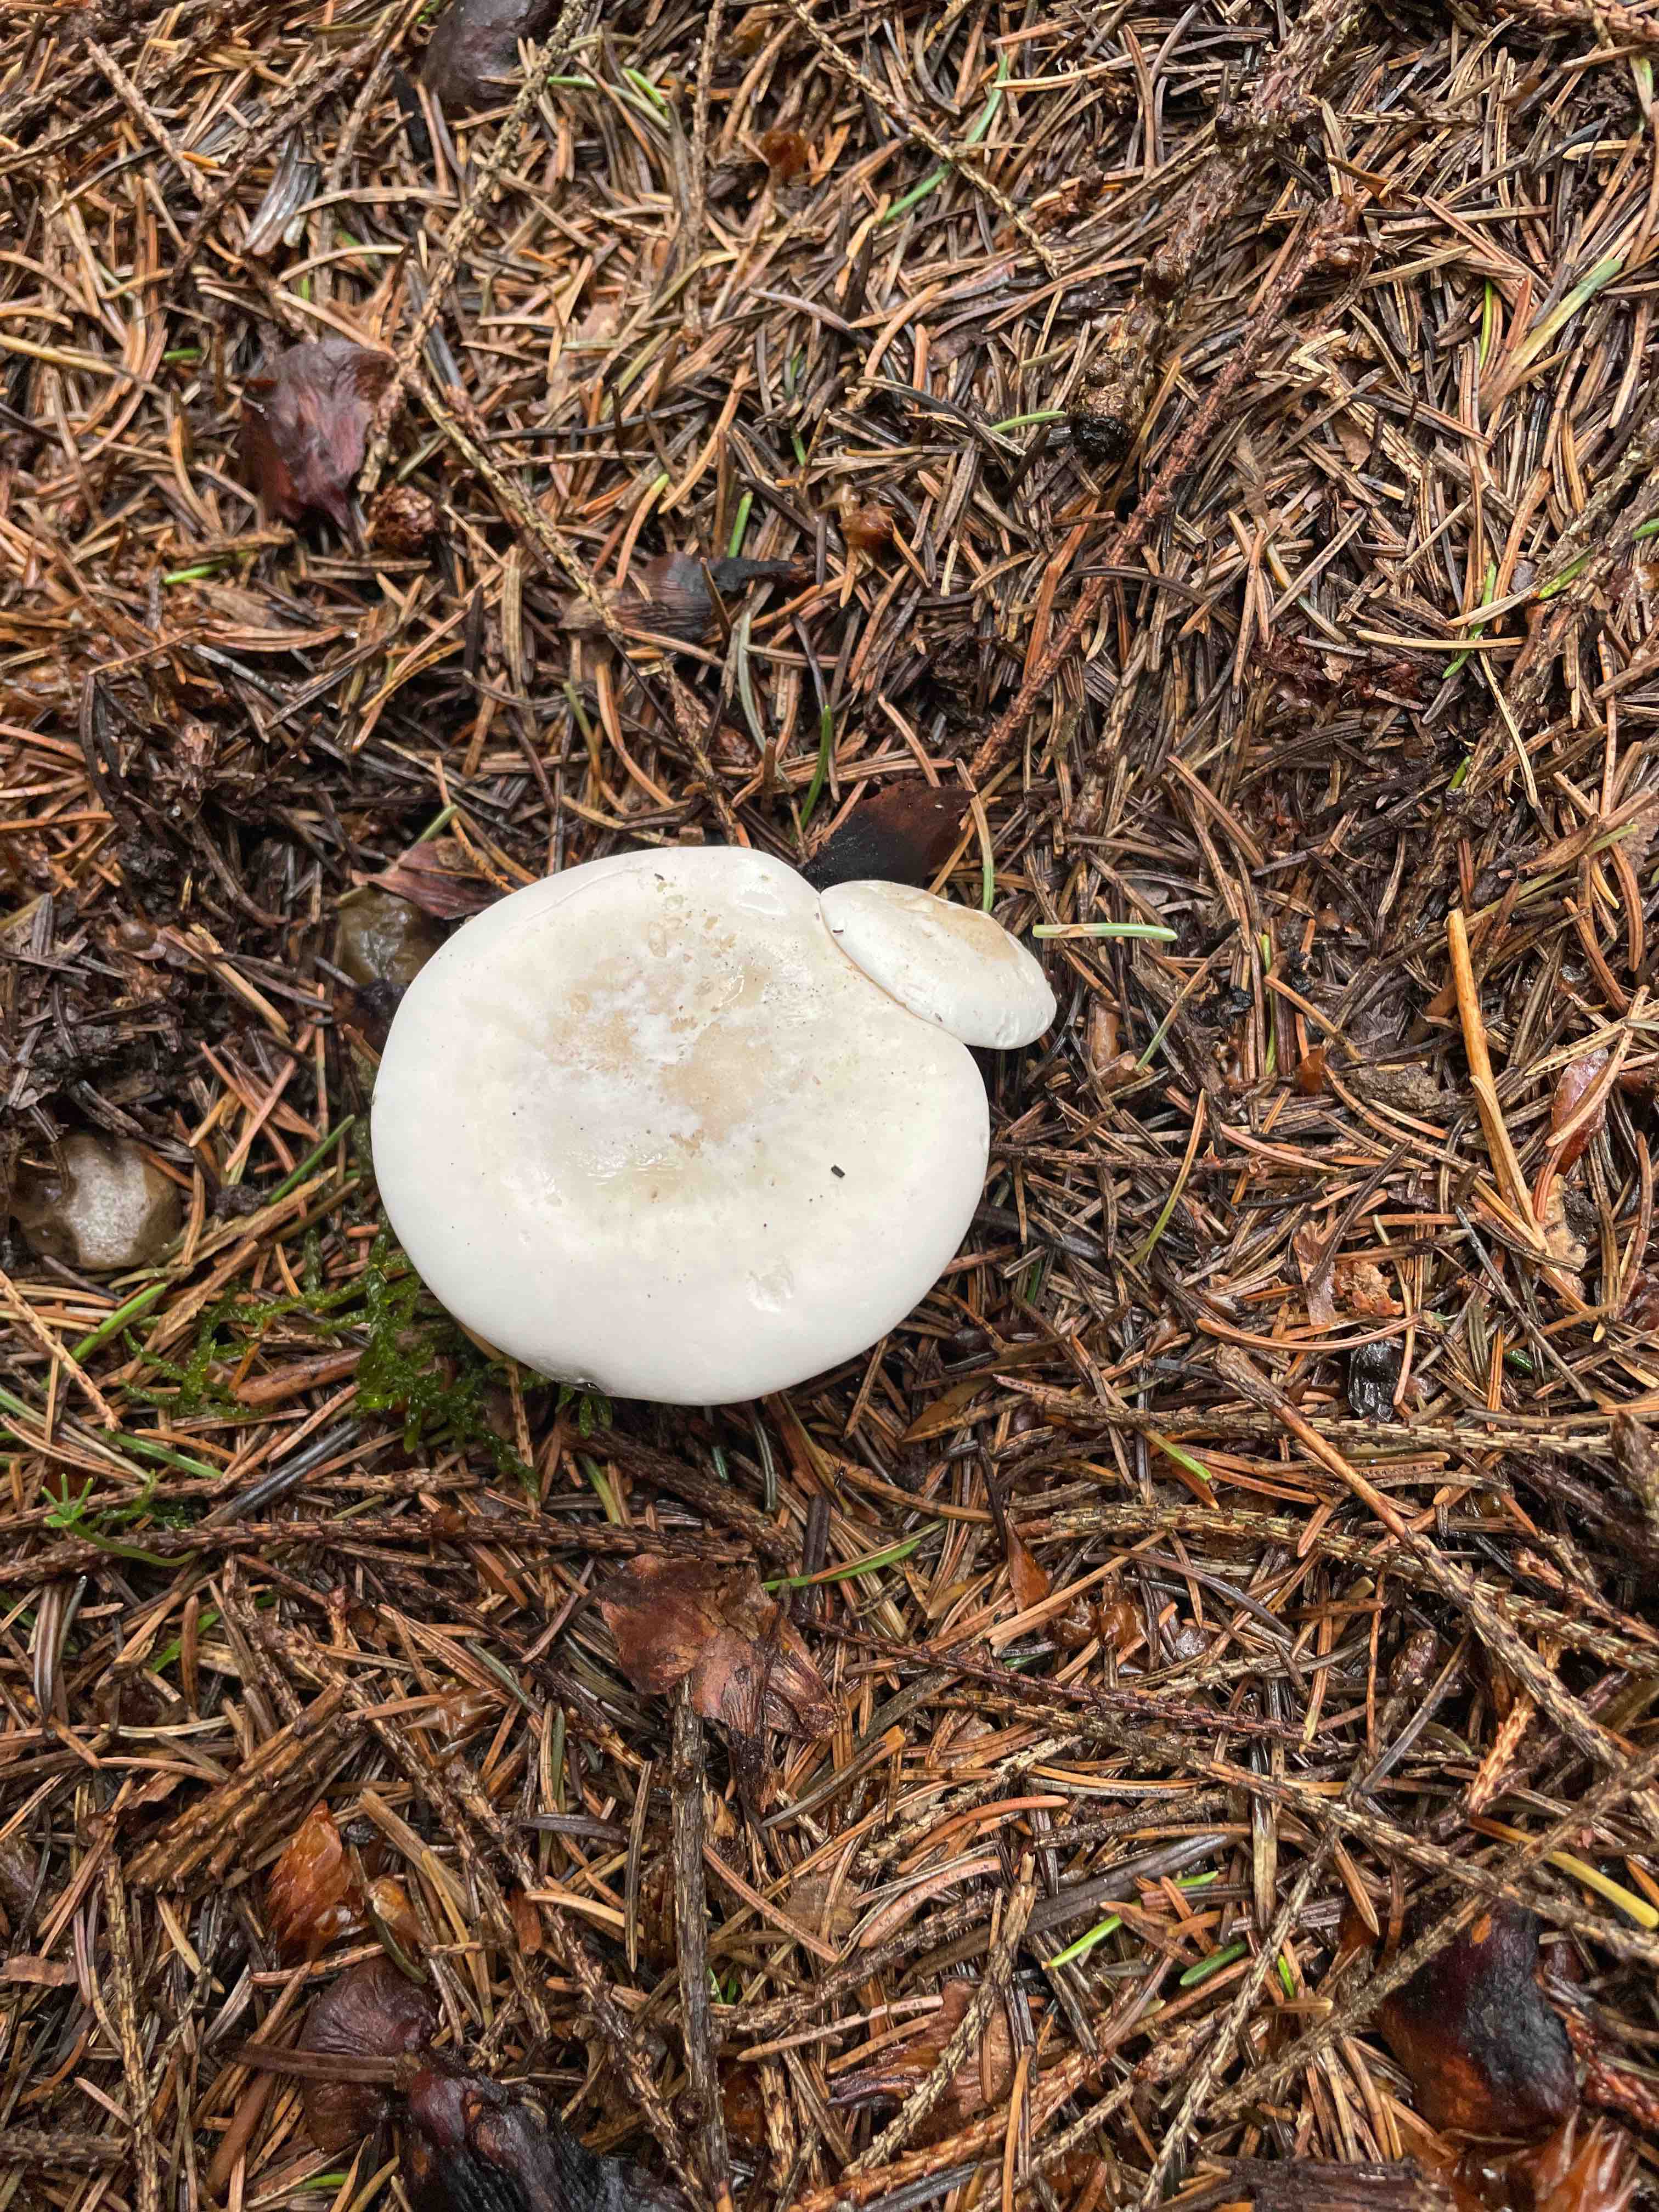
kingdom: Fungi
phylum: Basidiomycota
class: Agaricomycetes
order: Agaricales
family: Entolomataceae
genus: Clitopilus
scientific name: Clitopilus prunulus
